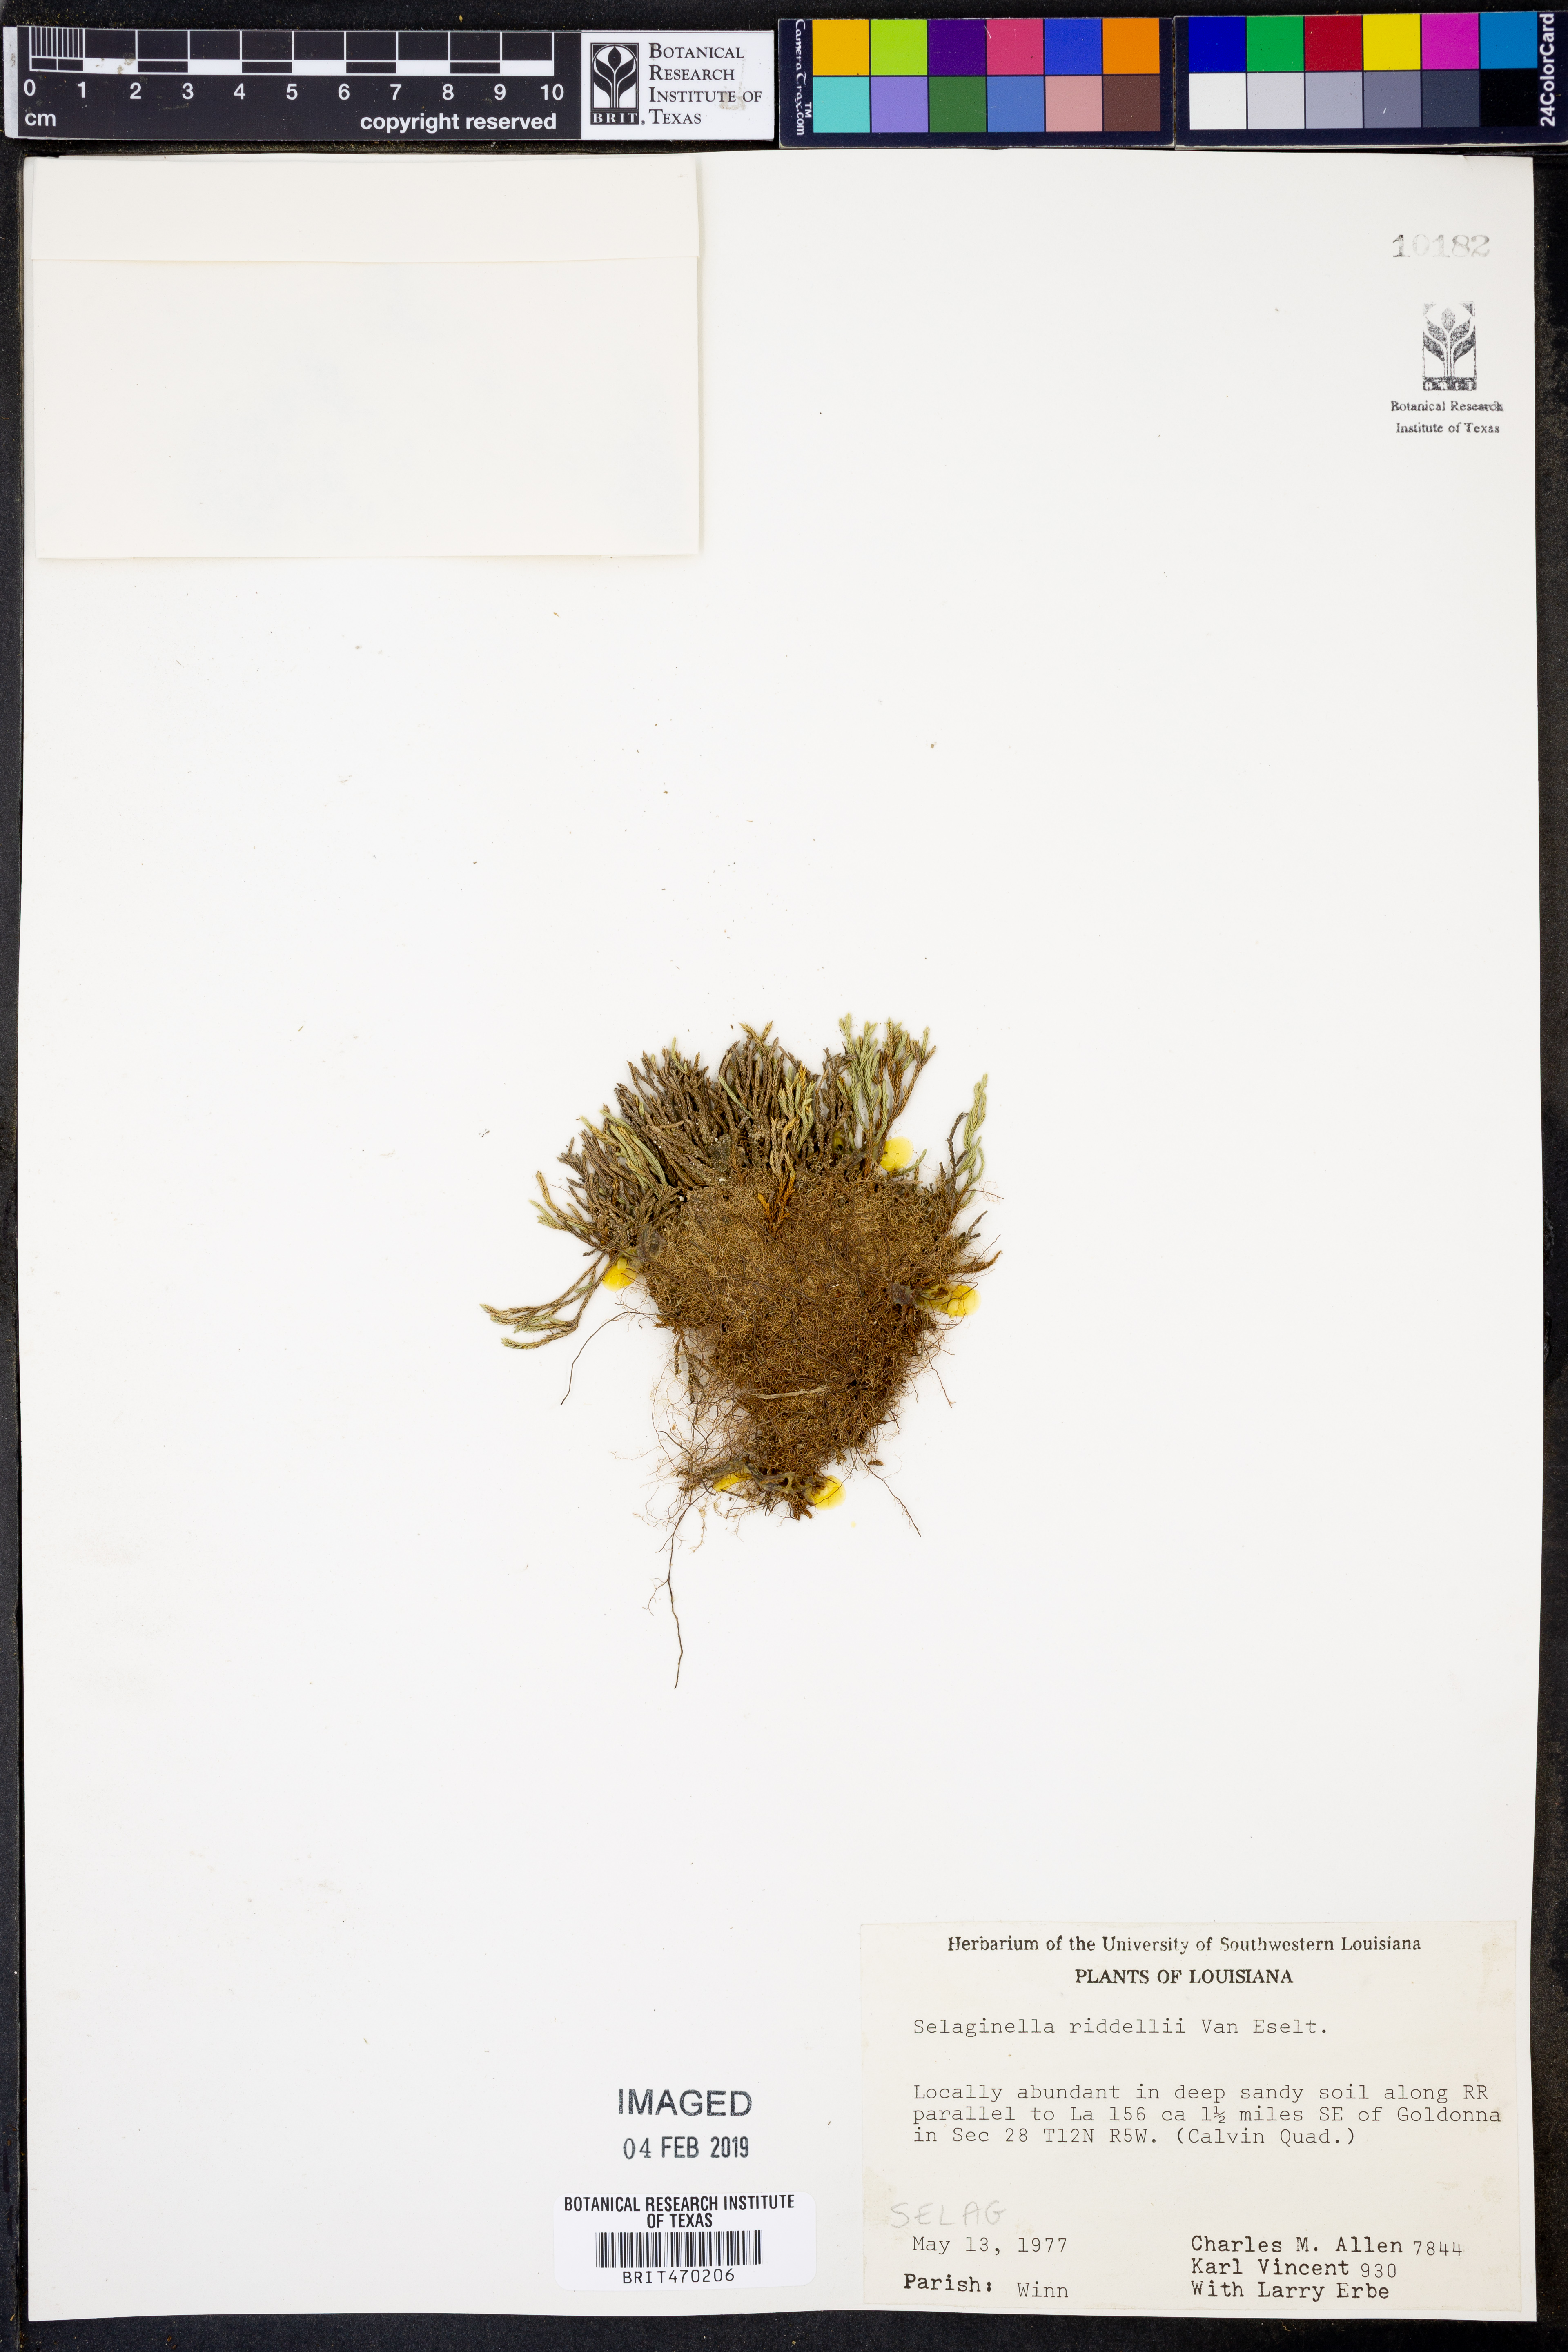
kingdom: Plantae
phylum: Tracheophyta
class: Lycopodiopsida
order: Selaginellales
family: Selaginellaceae
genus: Selaginella
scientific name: Selaginella corallina
